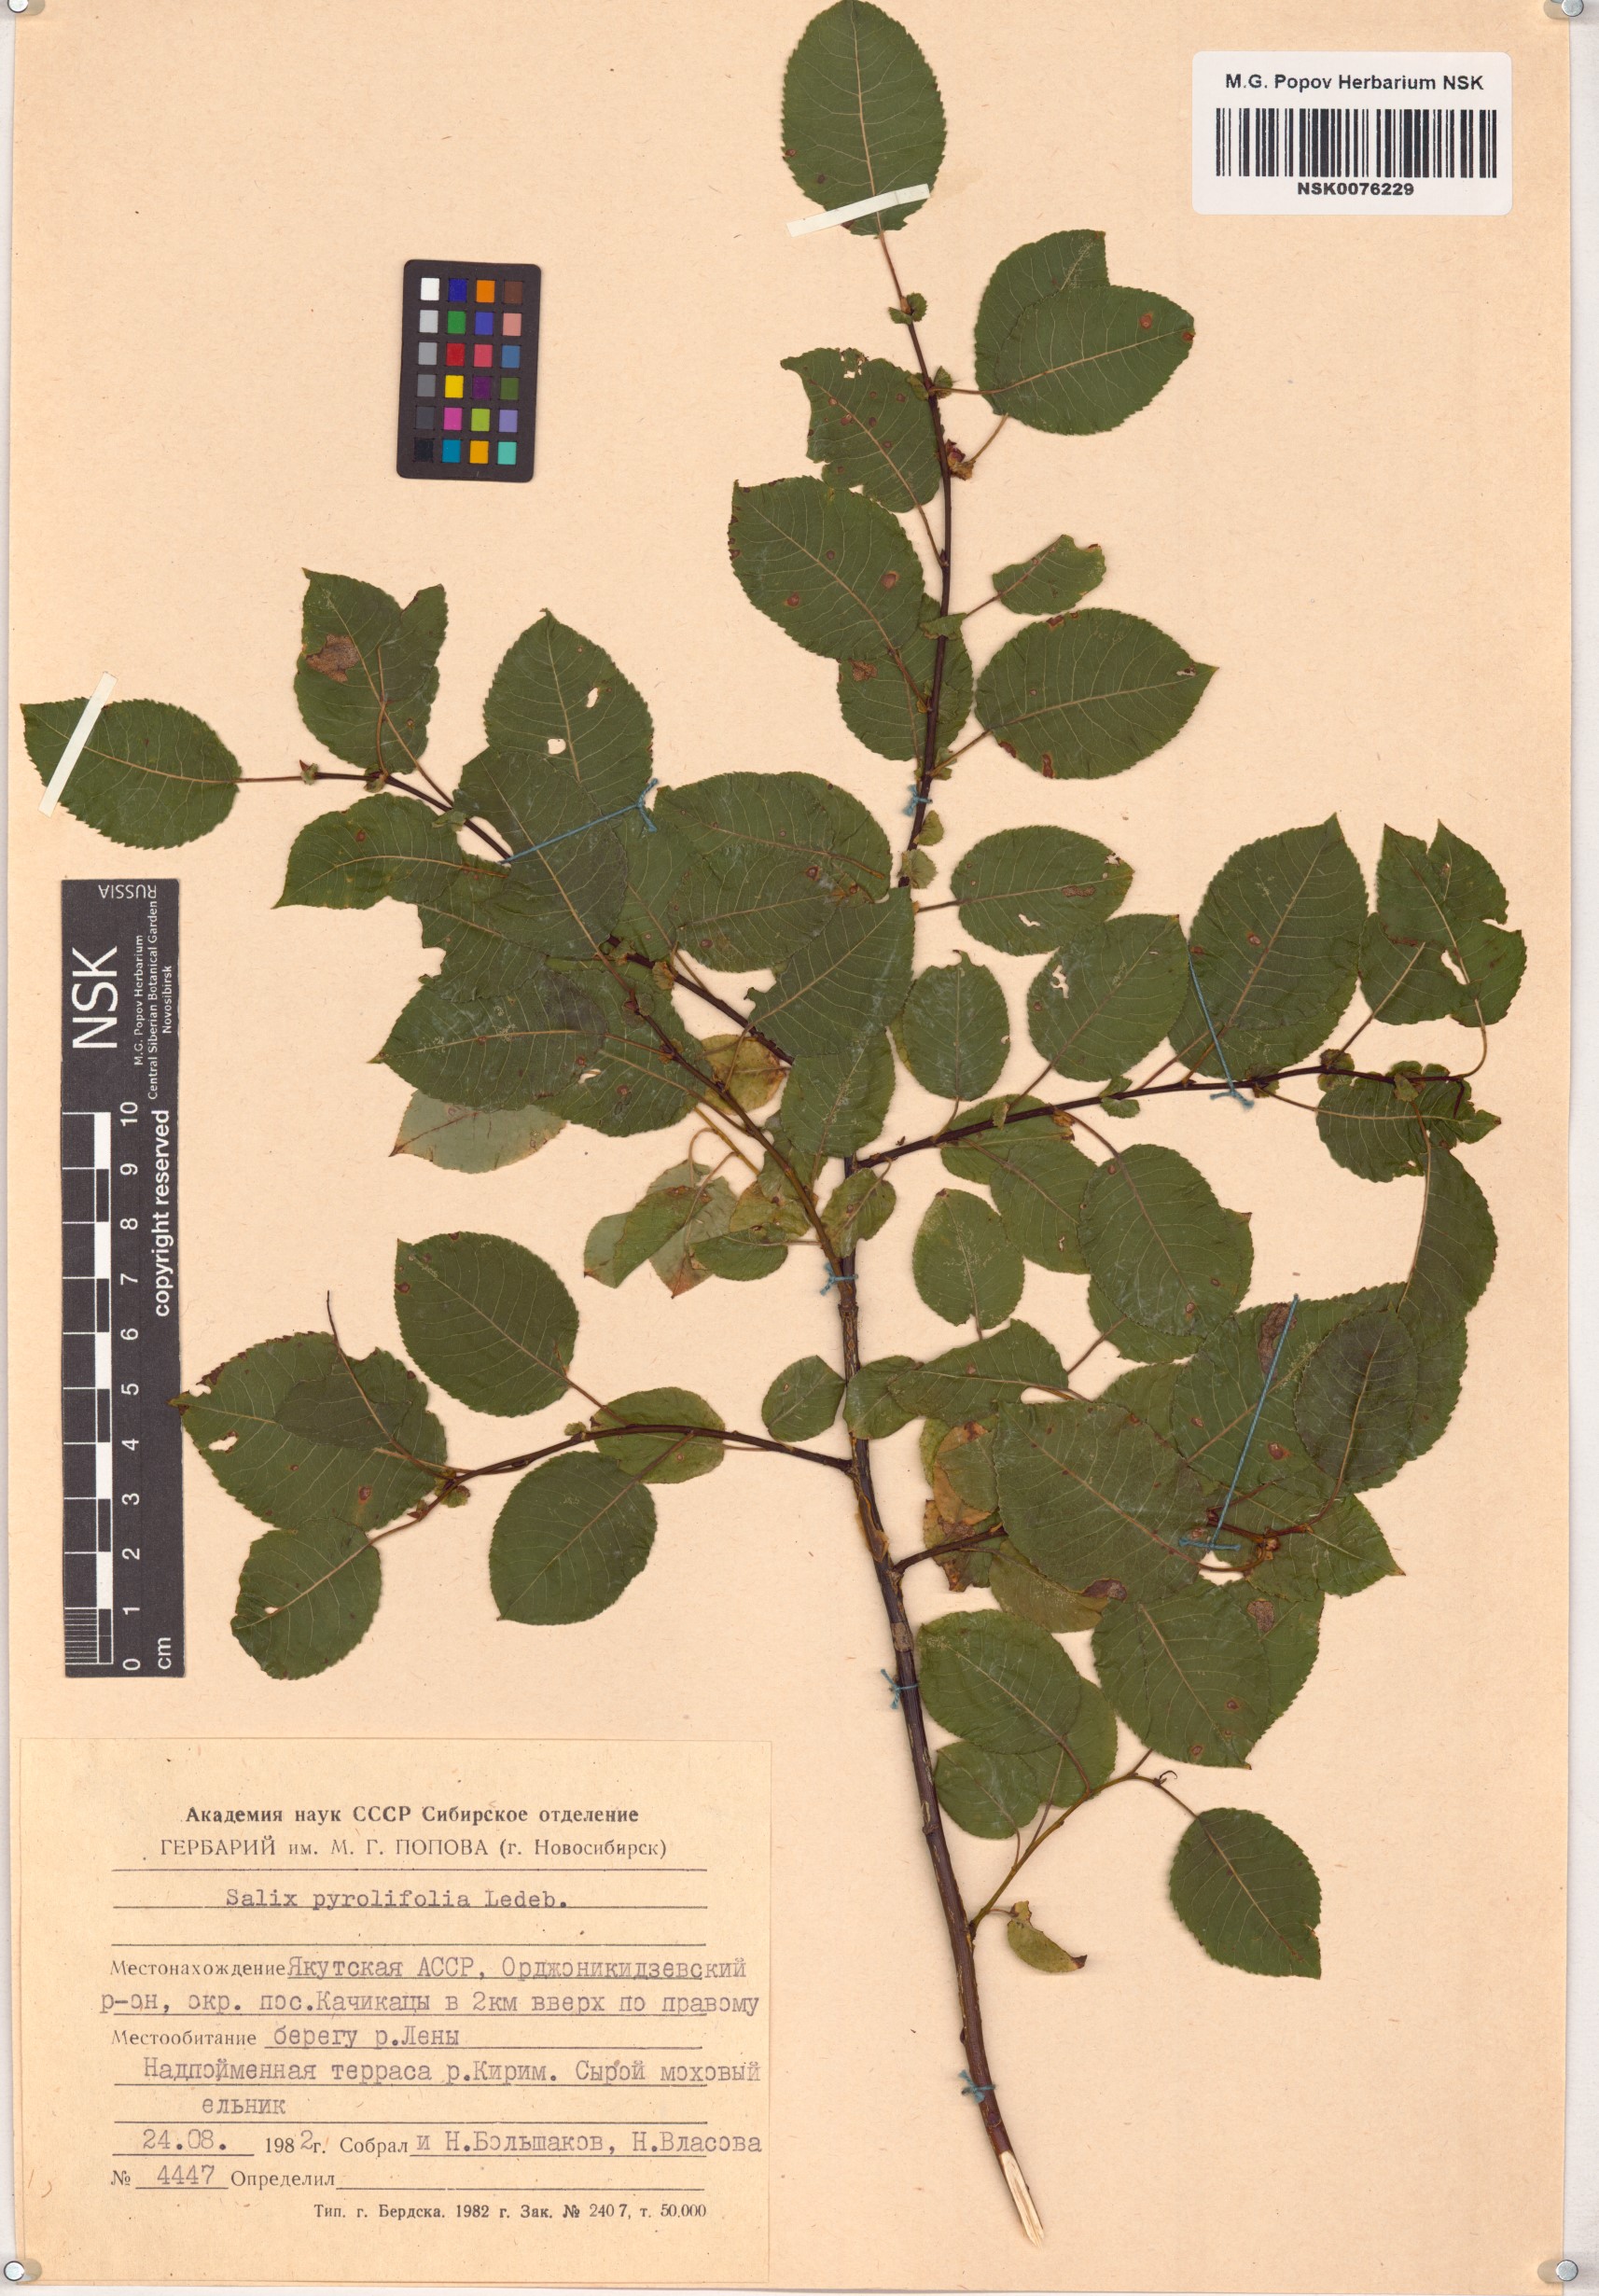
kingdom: Plantae
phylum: Tracheophyta
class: Magnoliopsida
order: Malpighiales
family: Salicaceae
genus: Salix
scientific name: Salix pyrolifolia
